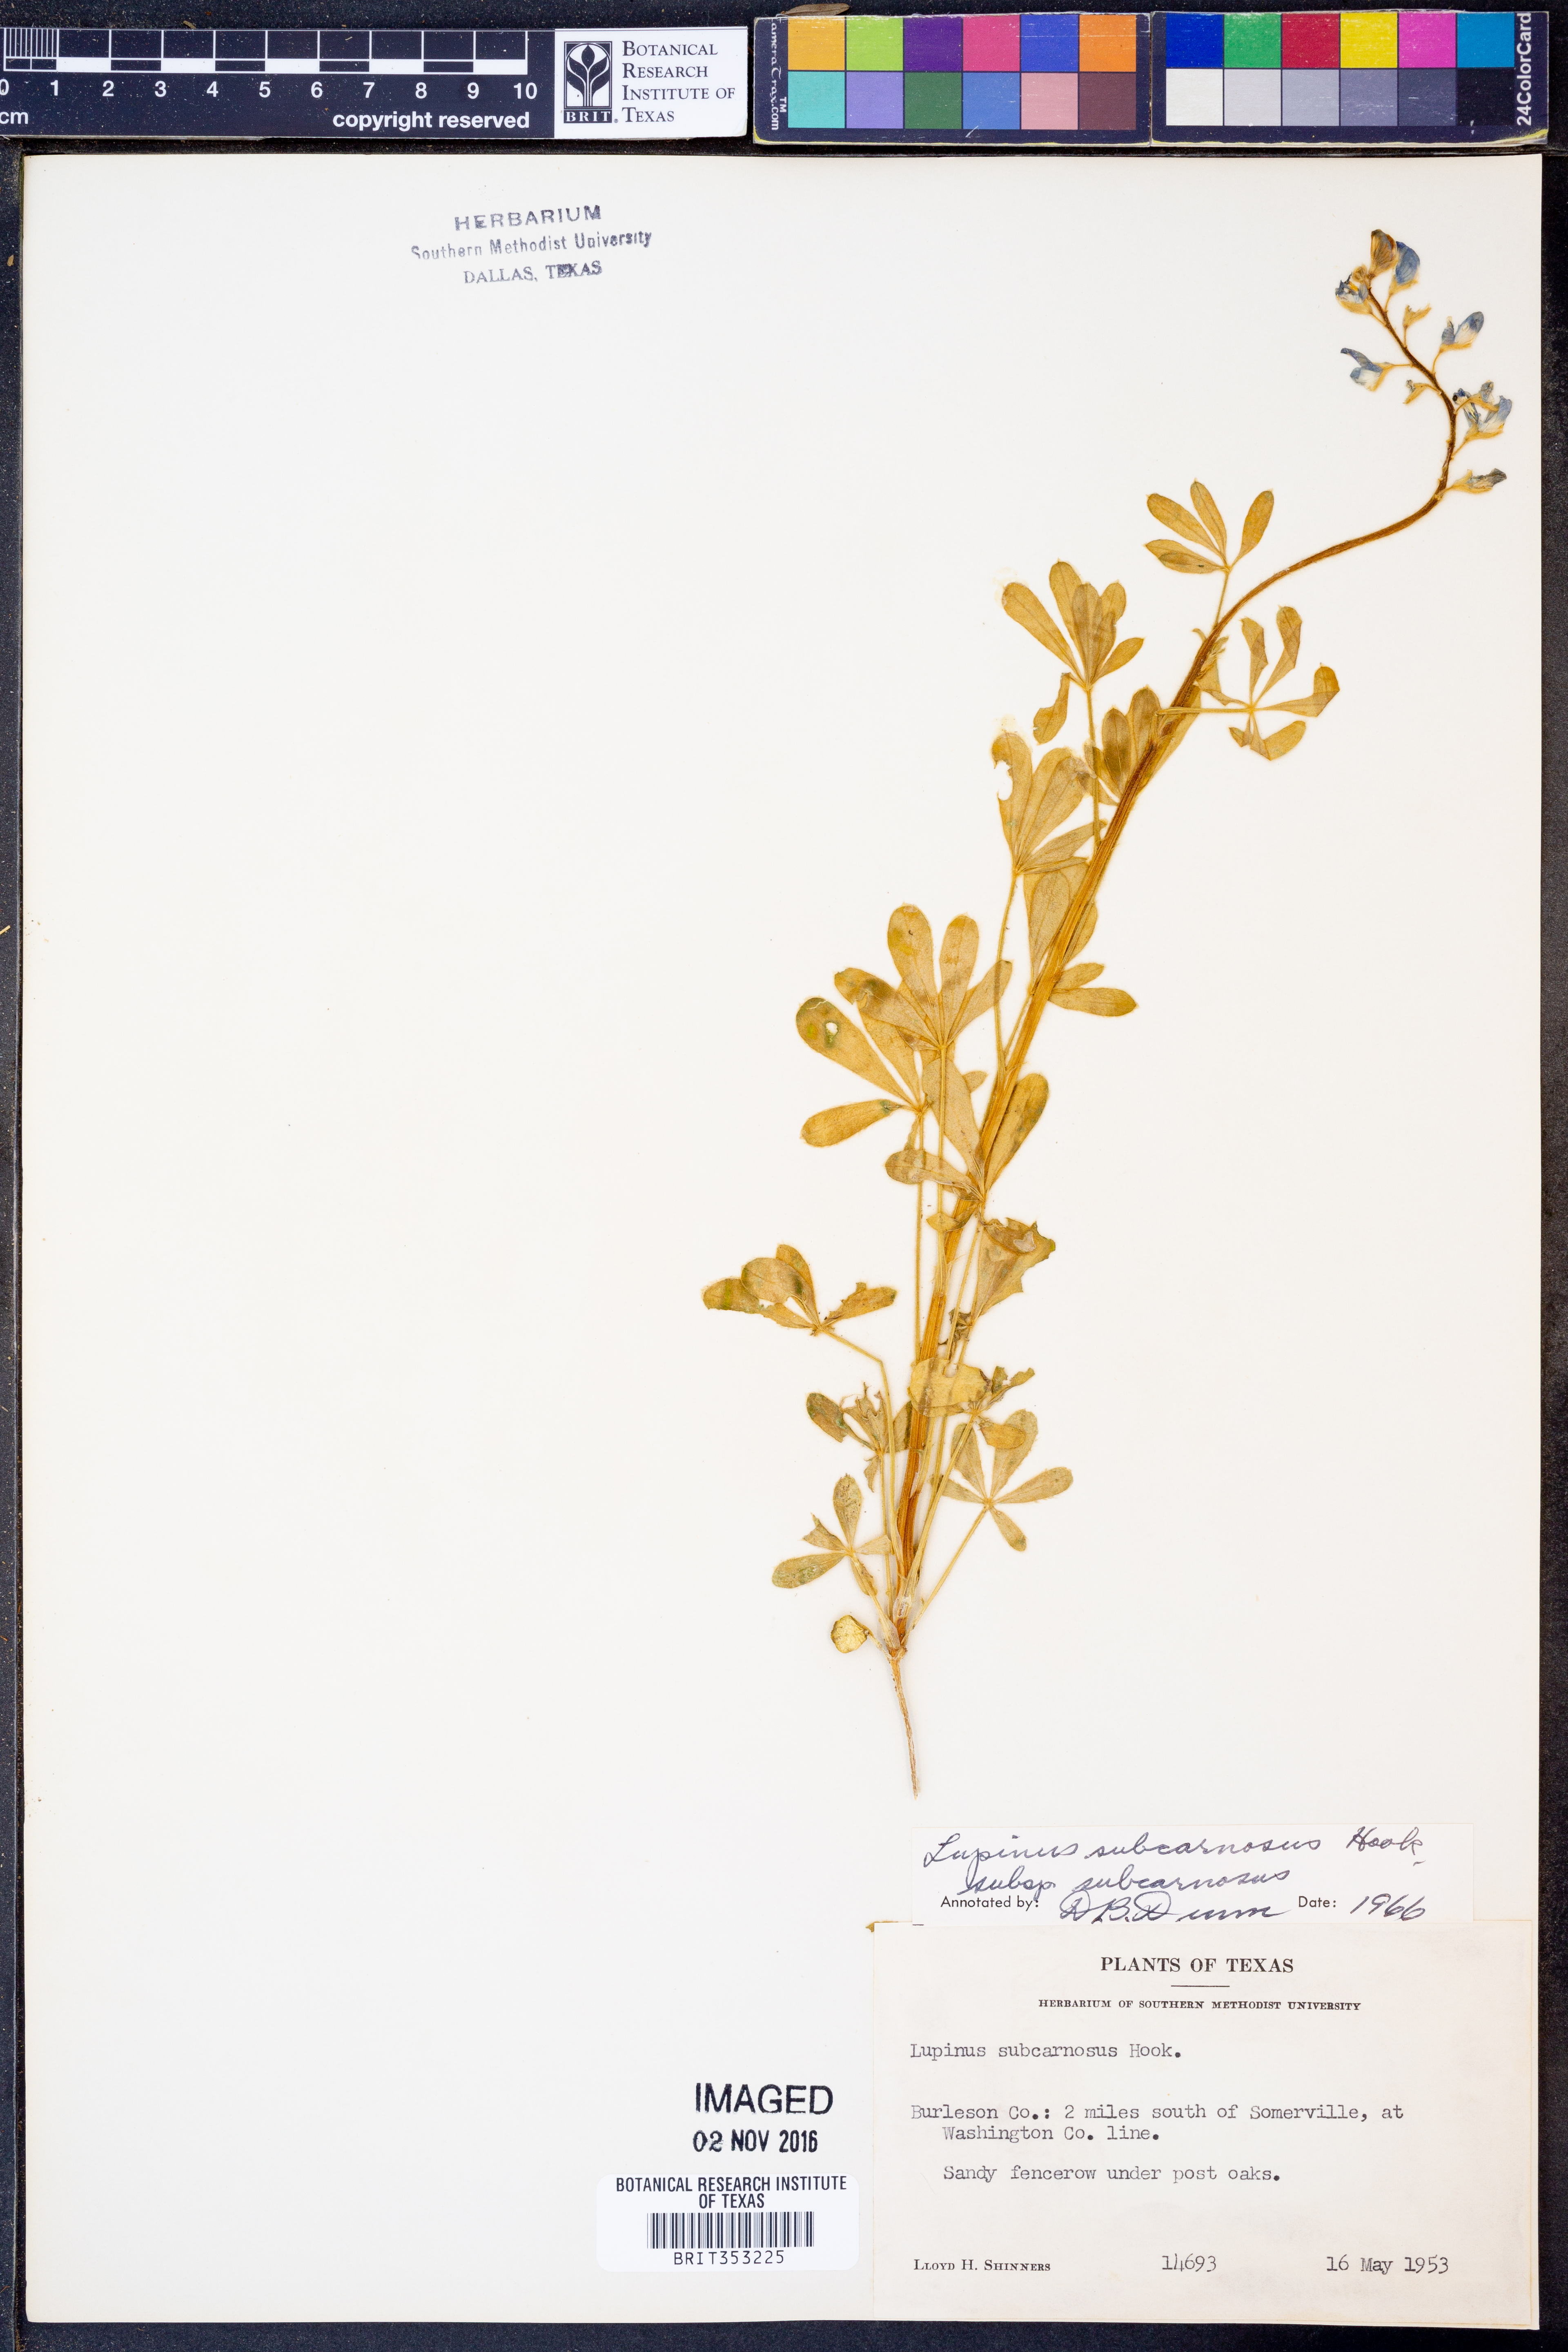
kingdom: Plantae
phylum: Tracheophyta
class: Magnoliopsida
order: Fabales
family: Fabaceae
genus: Lupinus
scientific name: Lupinus subcarnosus
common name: Texas bluebonnet
